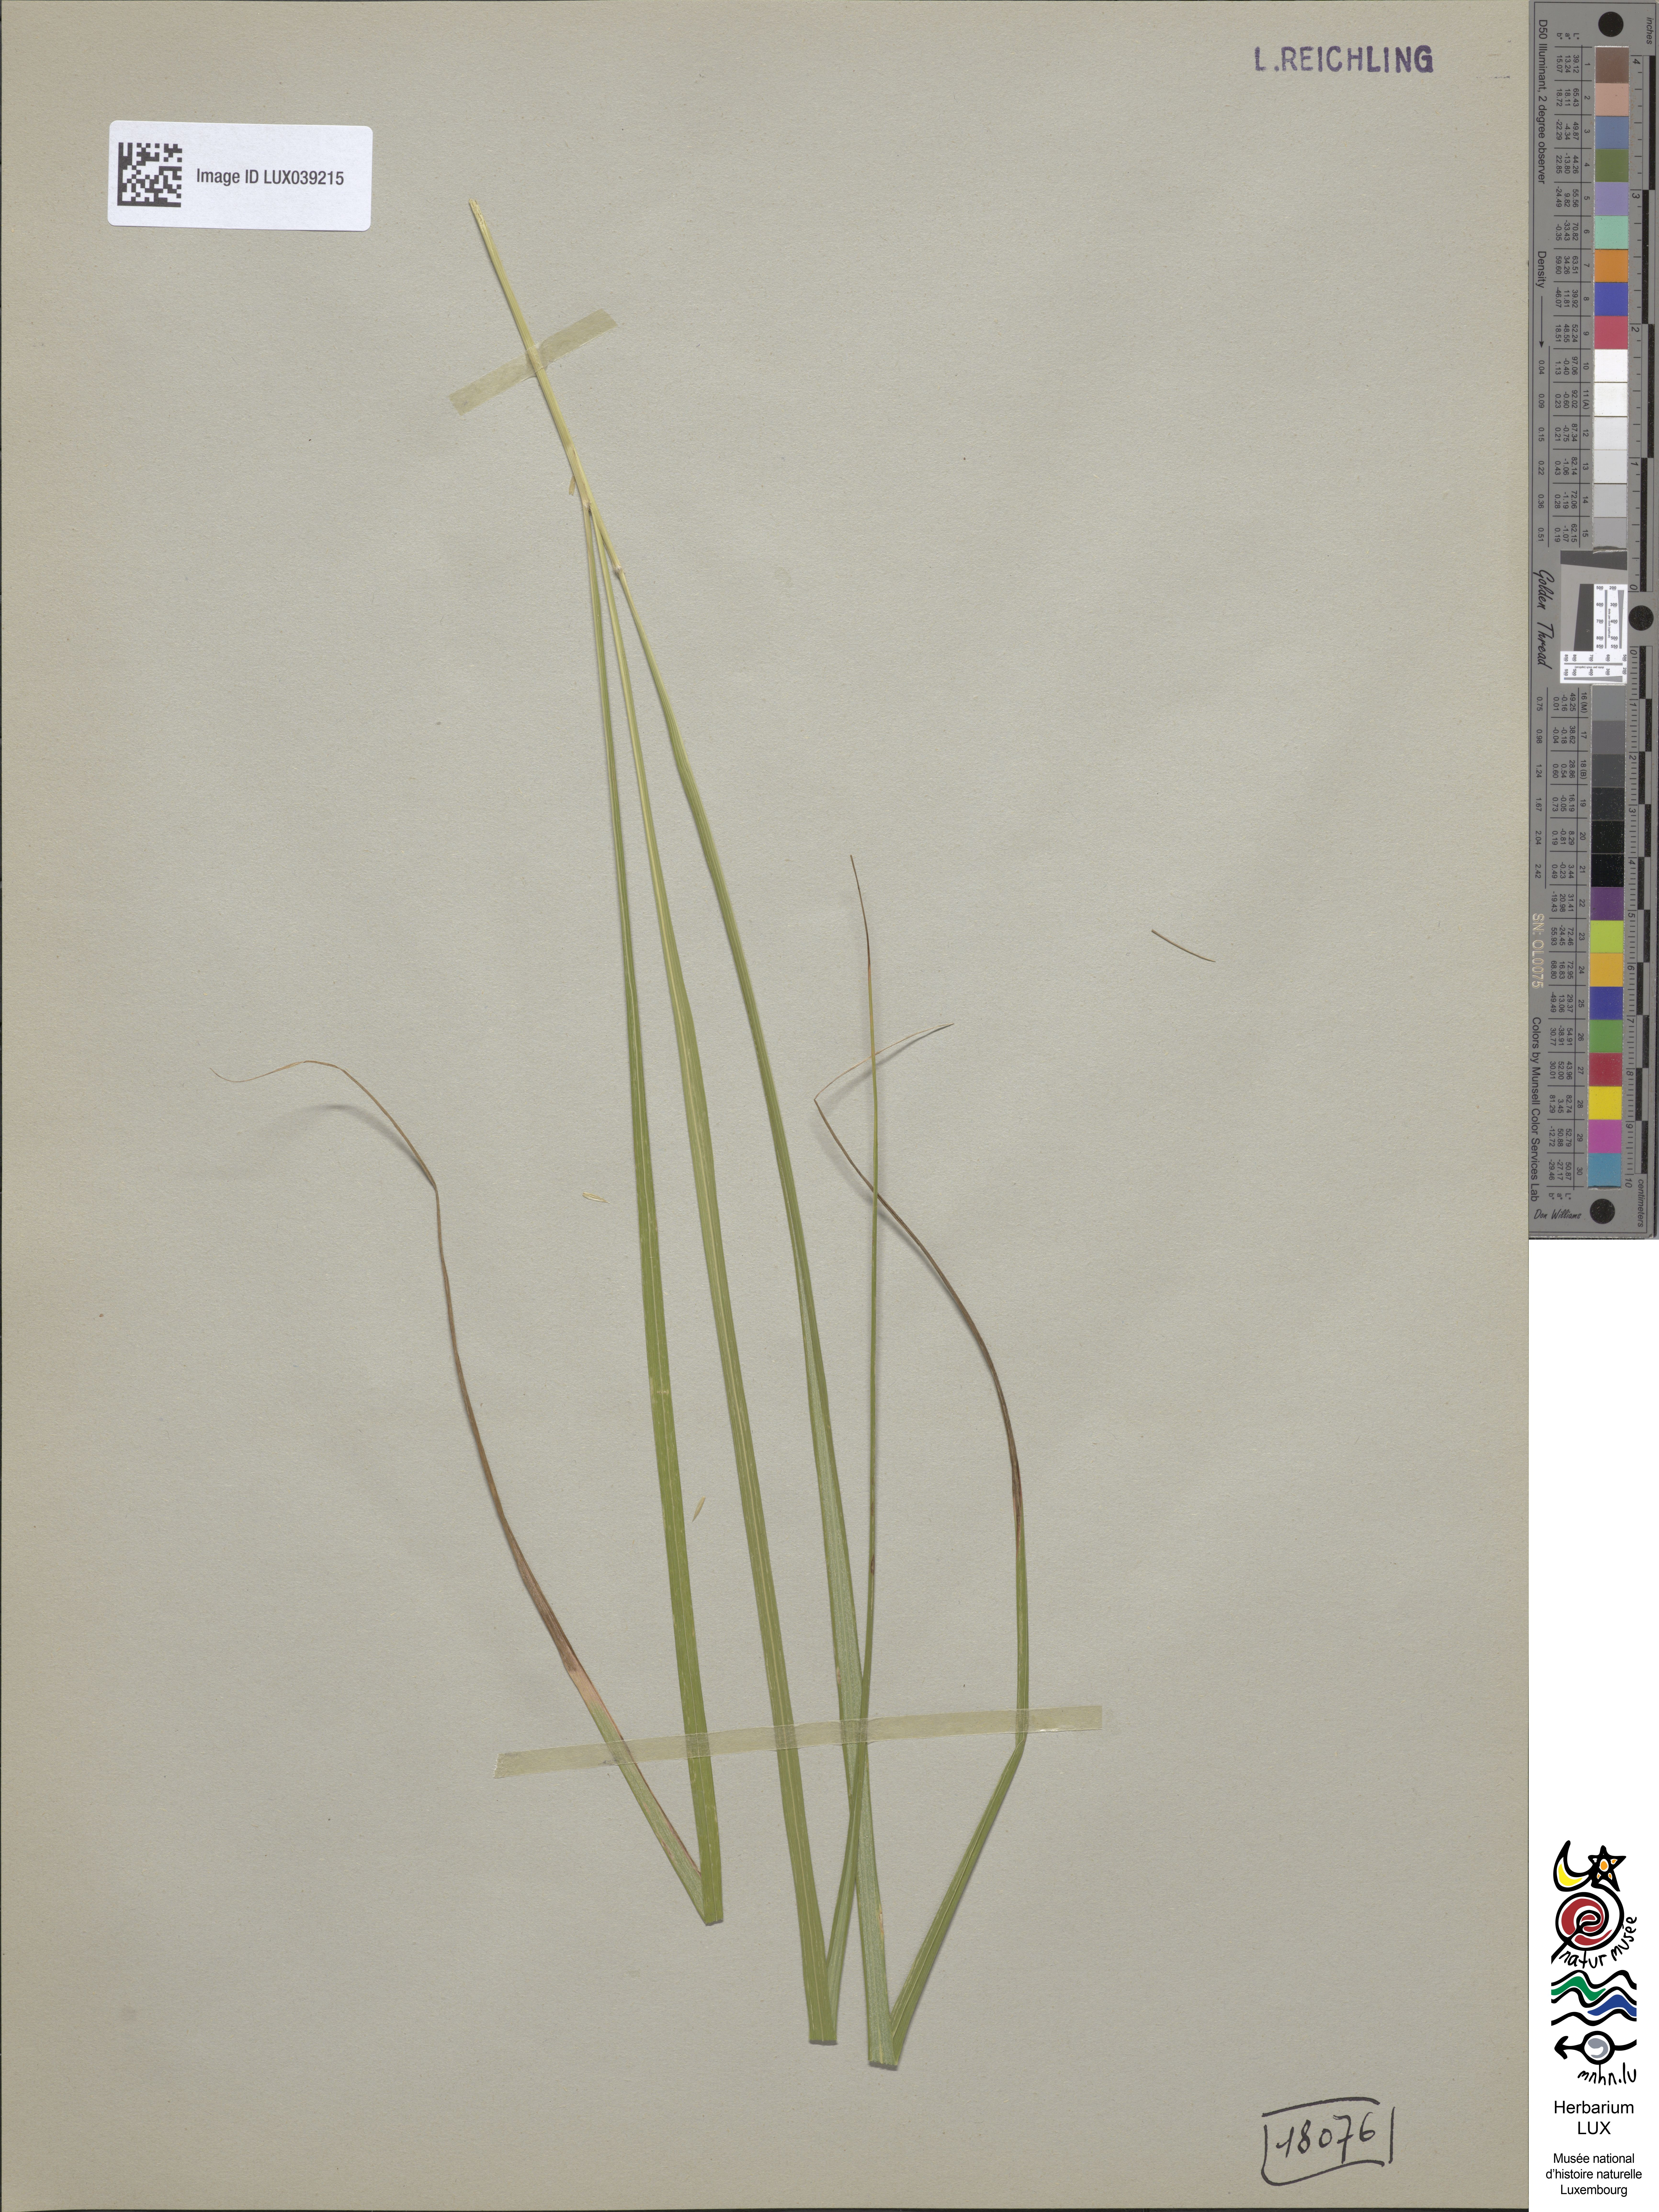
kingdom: Plantae
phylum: Tracheophyta
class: Liliopsida
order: Poales
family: Poaceae
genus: Calamagrostis
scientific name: Calamagrostis arundinacea
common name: Metskastik
